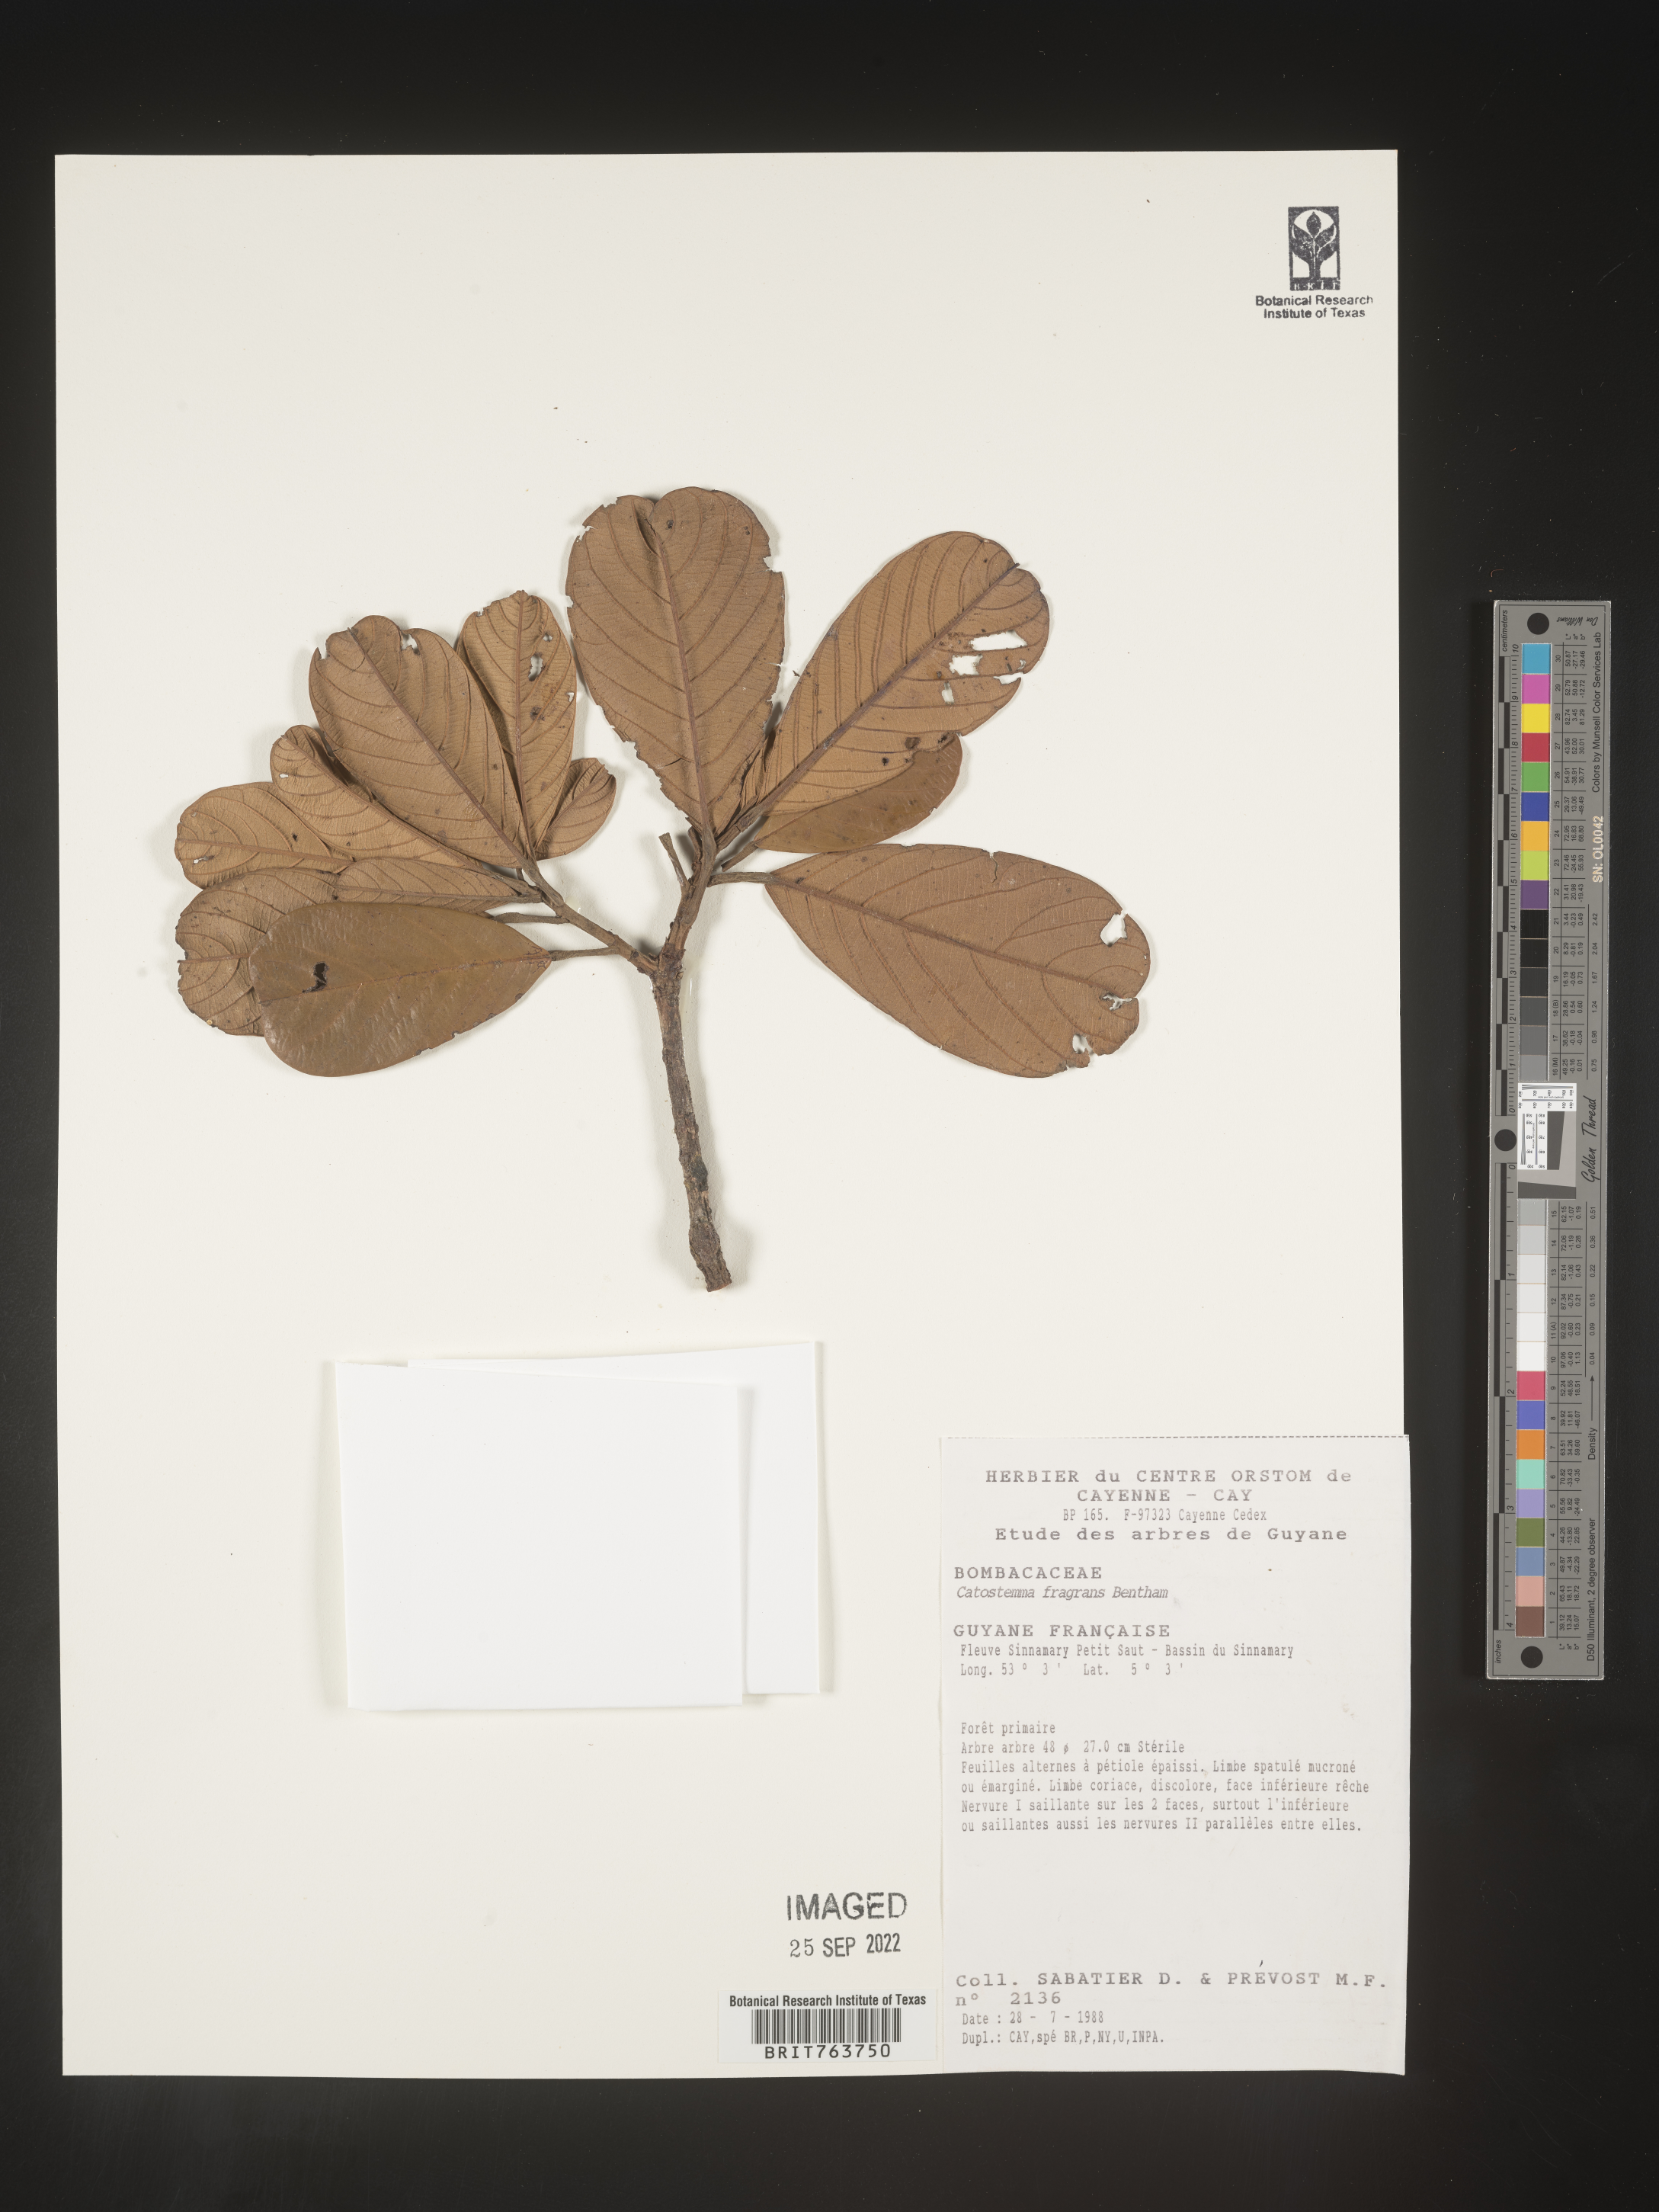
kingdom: Plantae
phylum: Tracheophyta
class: Magnoliopsida
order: Malvales
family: Malvaceae
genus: Catostemma
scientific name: Catostemma
